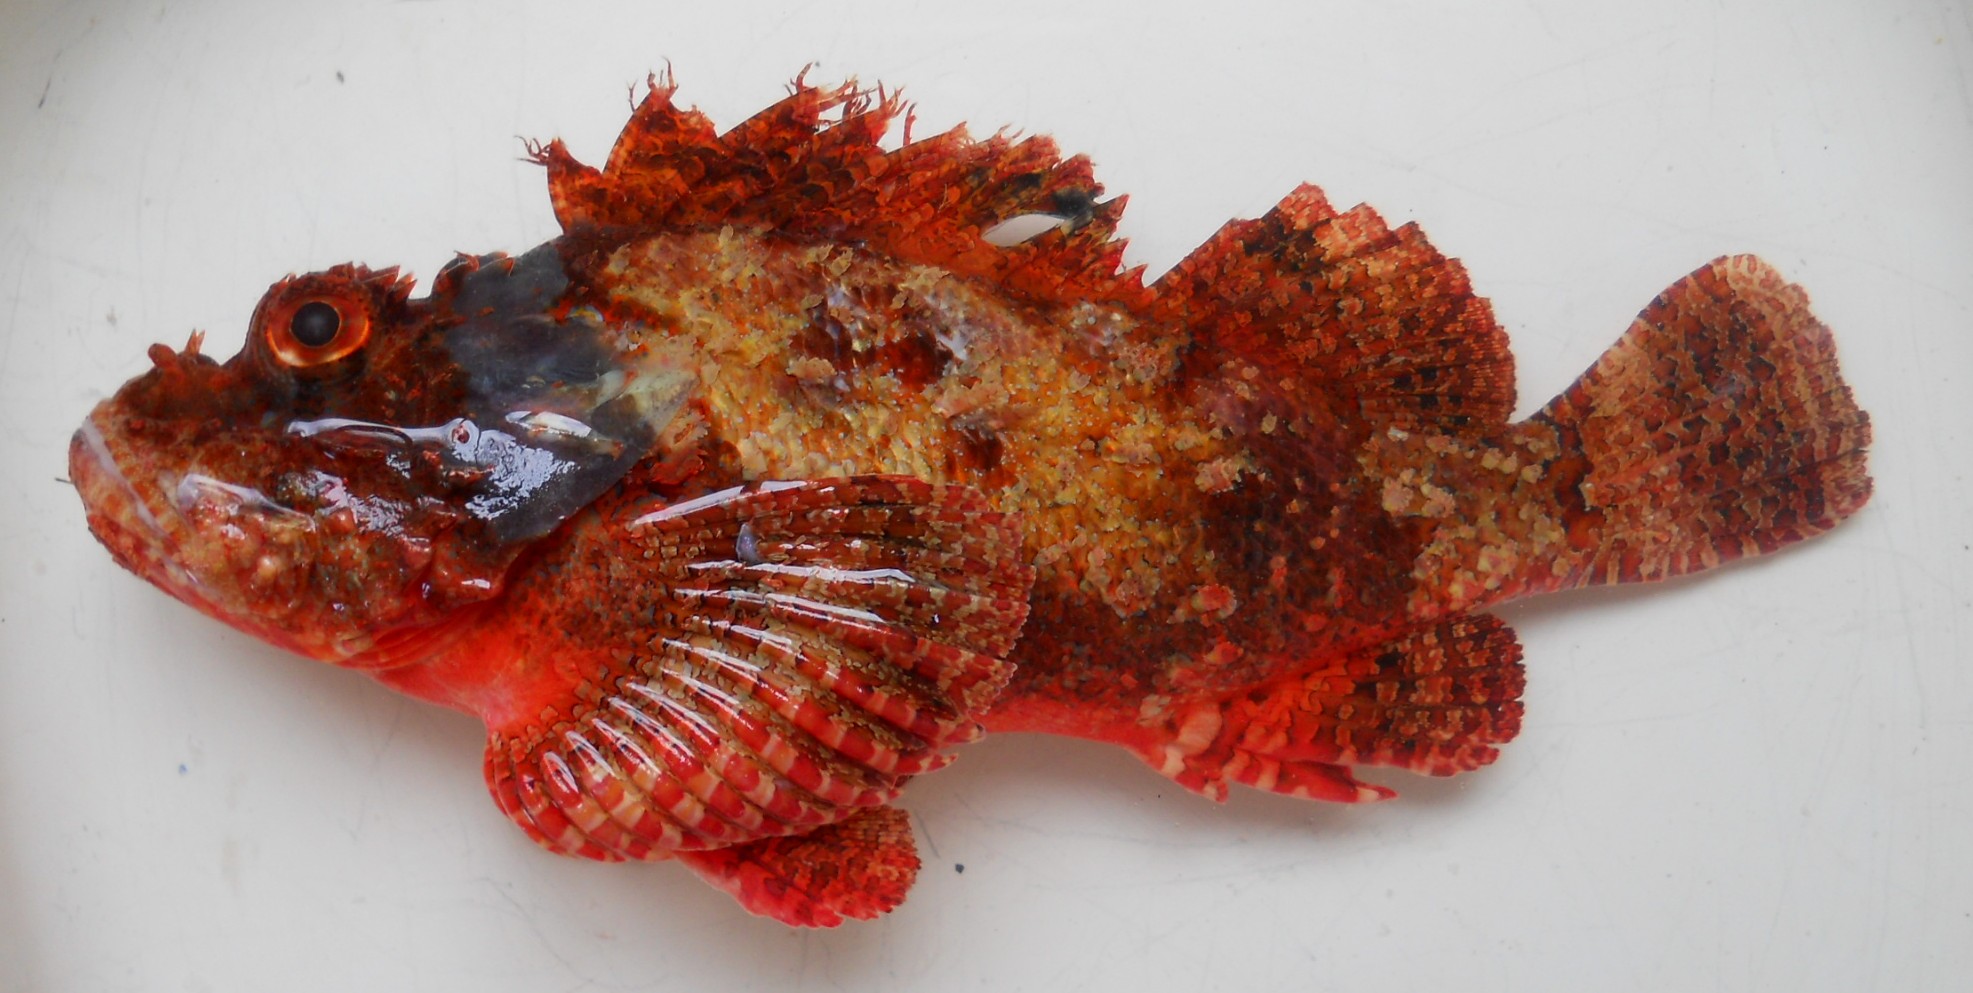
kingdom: Animalia
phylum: Chordata
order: Scorpaeniformes
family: Scorpaenidae
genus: Scorpaenopsis
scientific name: Scorpaenopsis possi
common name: Poss's scorpionfish
